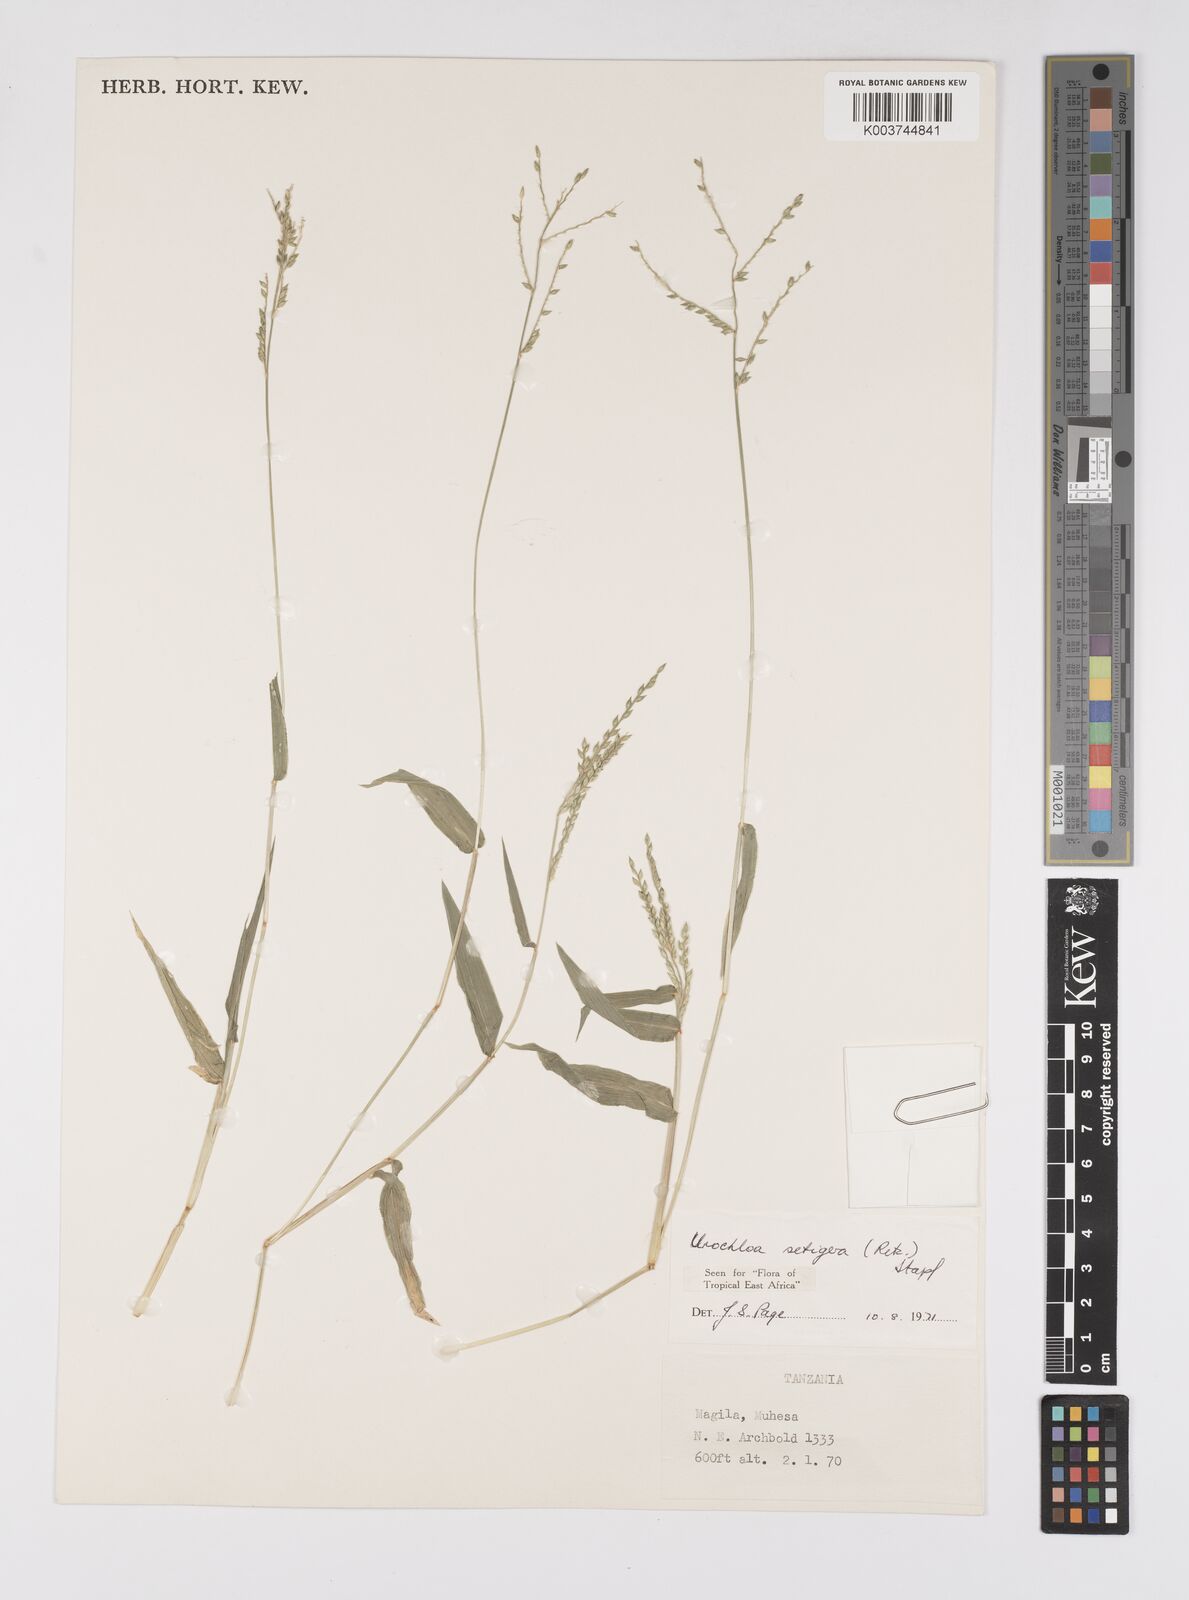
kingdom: Plantae
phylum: Tracheophyta
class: Liliopsida
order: Poales
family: Poaceae
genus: Urochloa
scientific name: Urochloa trichopodioides
